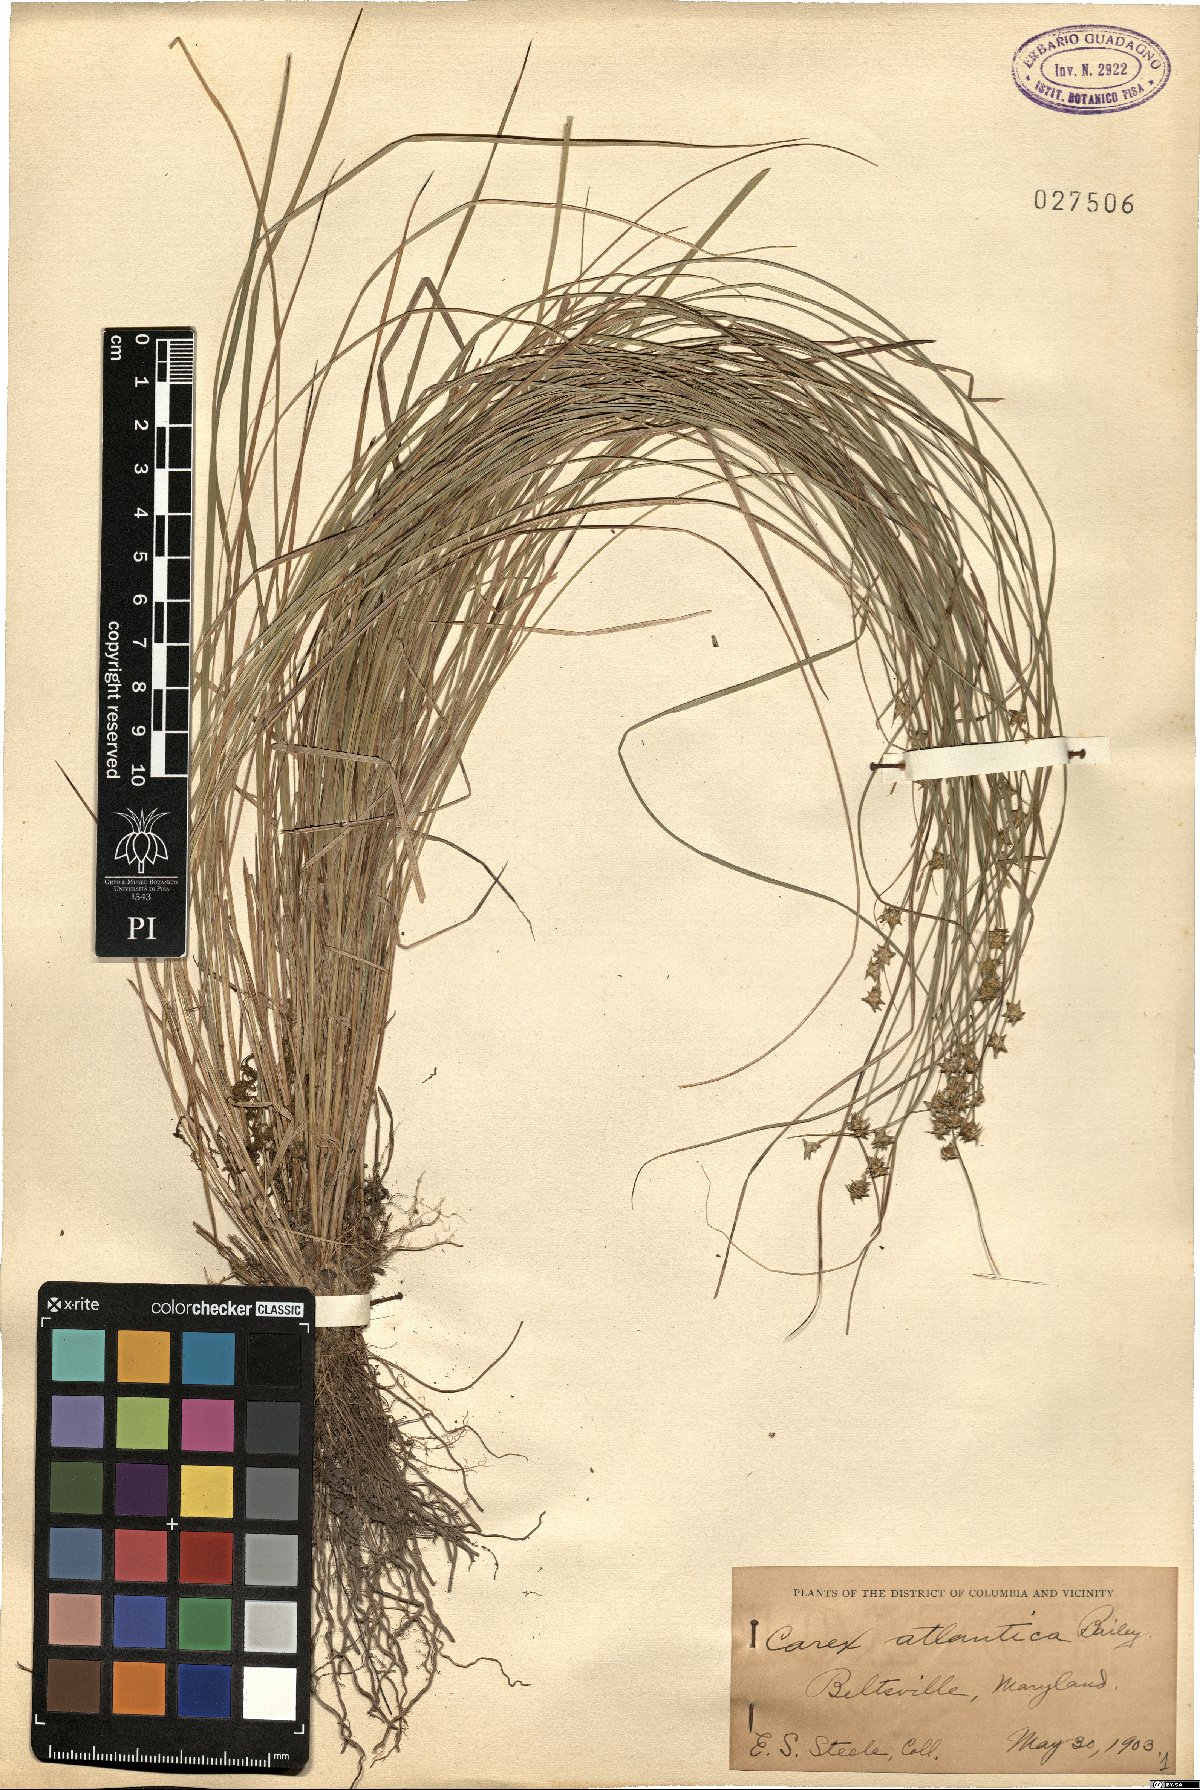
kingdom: Plantae
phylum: Tracheophyta
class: Liliopsida
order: Poales
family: Cyperaceae
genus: Carex
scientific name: Carex atlantica
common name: Atlantic sedge
